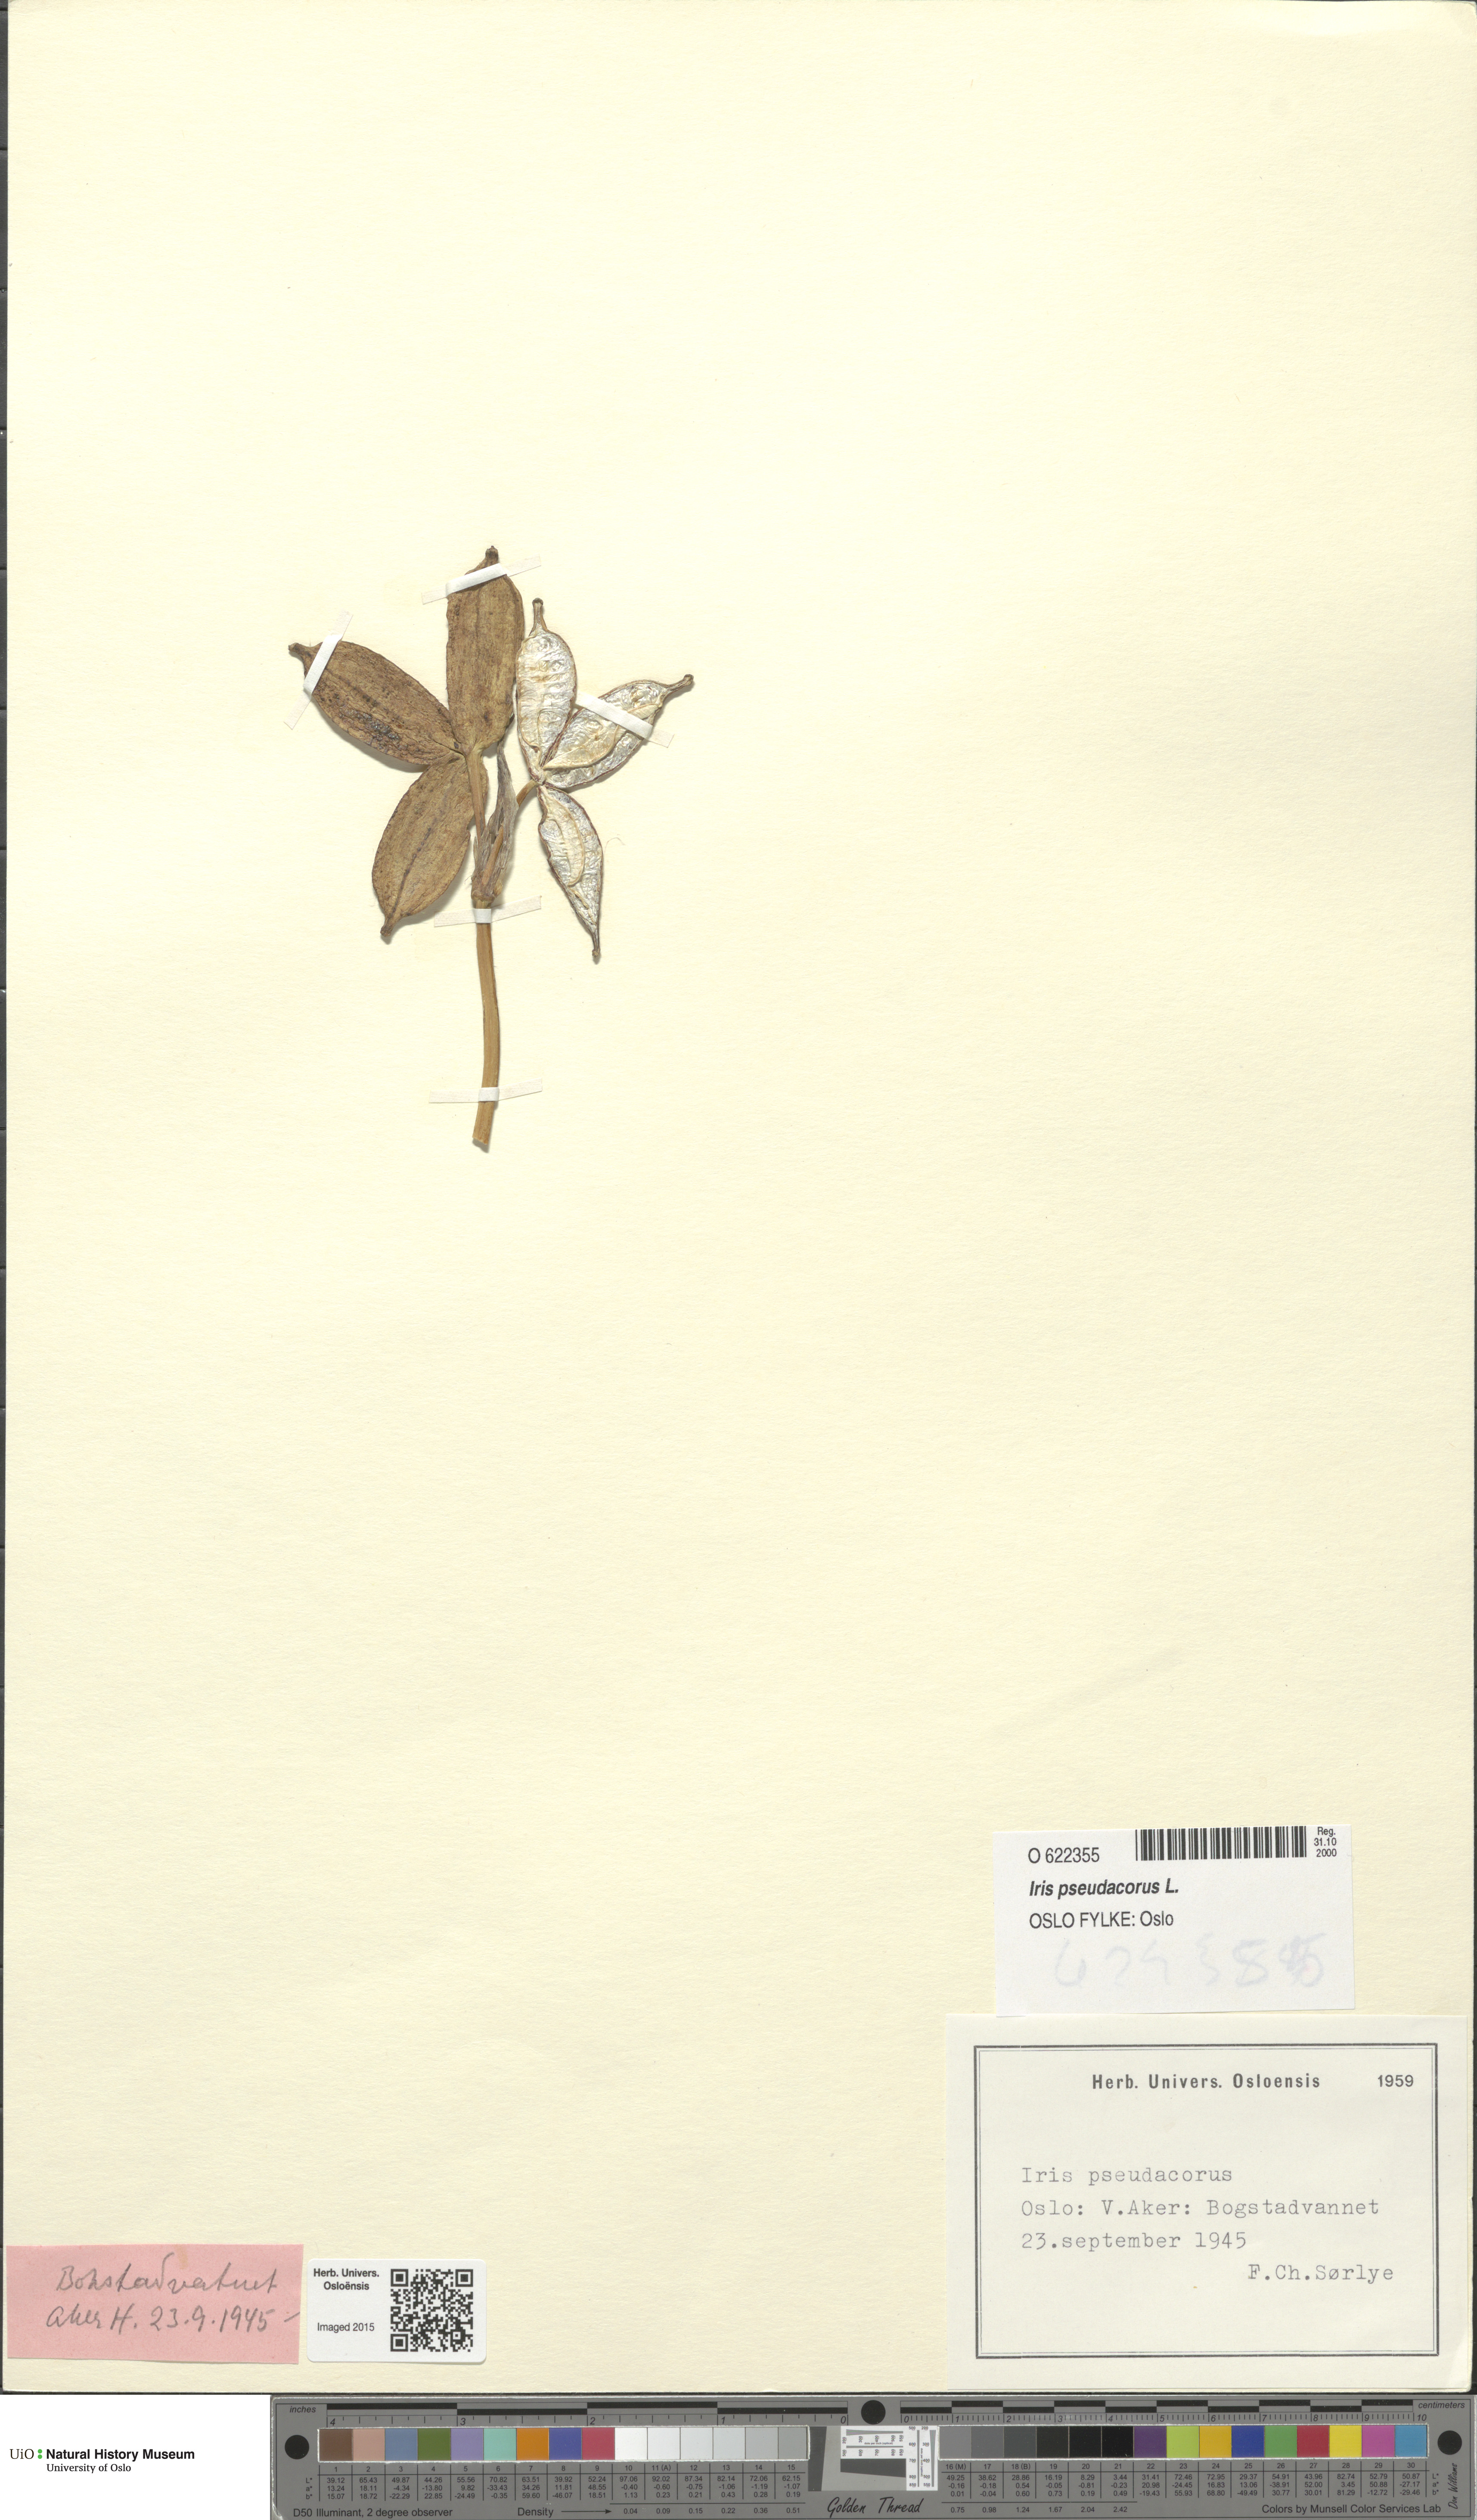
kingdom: Plantae
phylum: Tracheophyta
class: Liliopsida
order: Asparagales
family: Iridaceae
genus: Iris
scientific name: Iris pseudacorus
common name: Yellow flag
